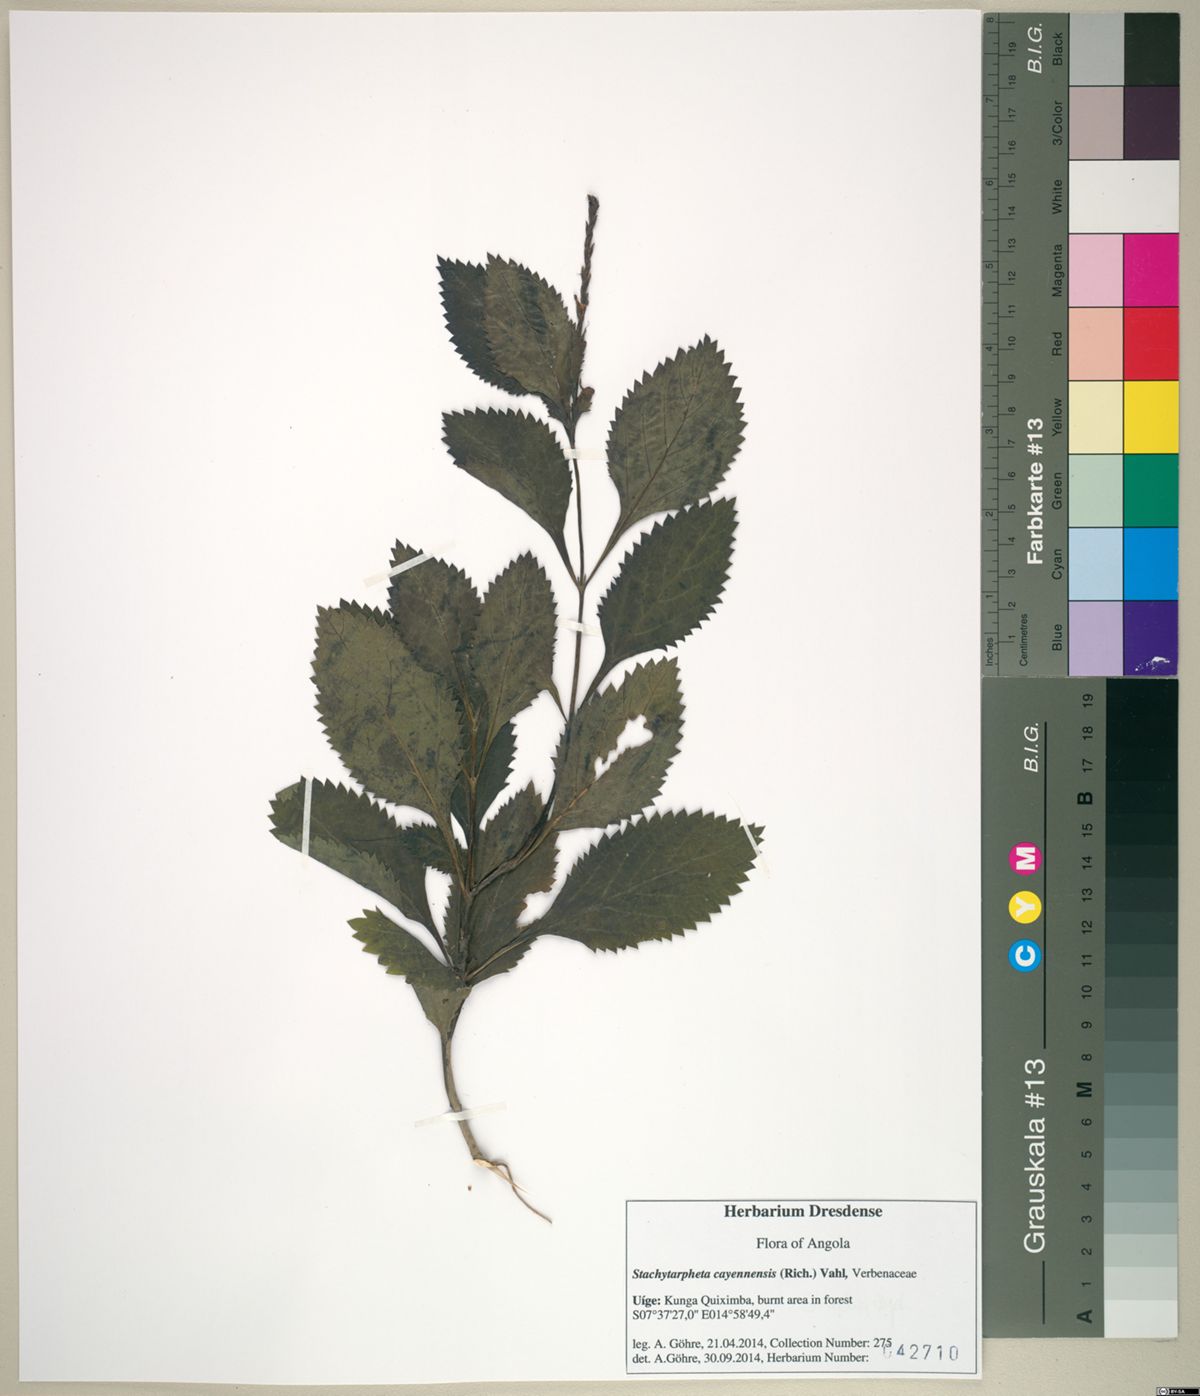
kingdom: Plantae
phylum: Tracheophyta
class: Magnoliopsida
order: Lamiales
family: Verbenaceae
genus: Stachytarpheta
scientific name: Stachytarpheta cayennensis
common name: Cayenne porterweed
